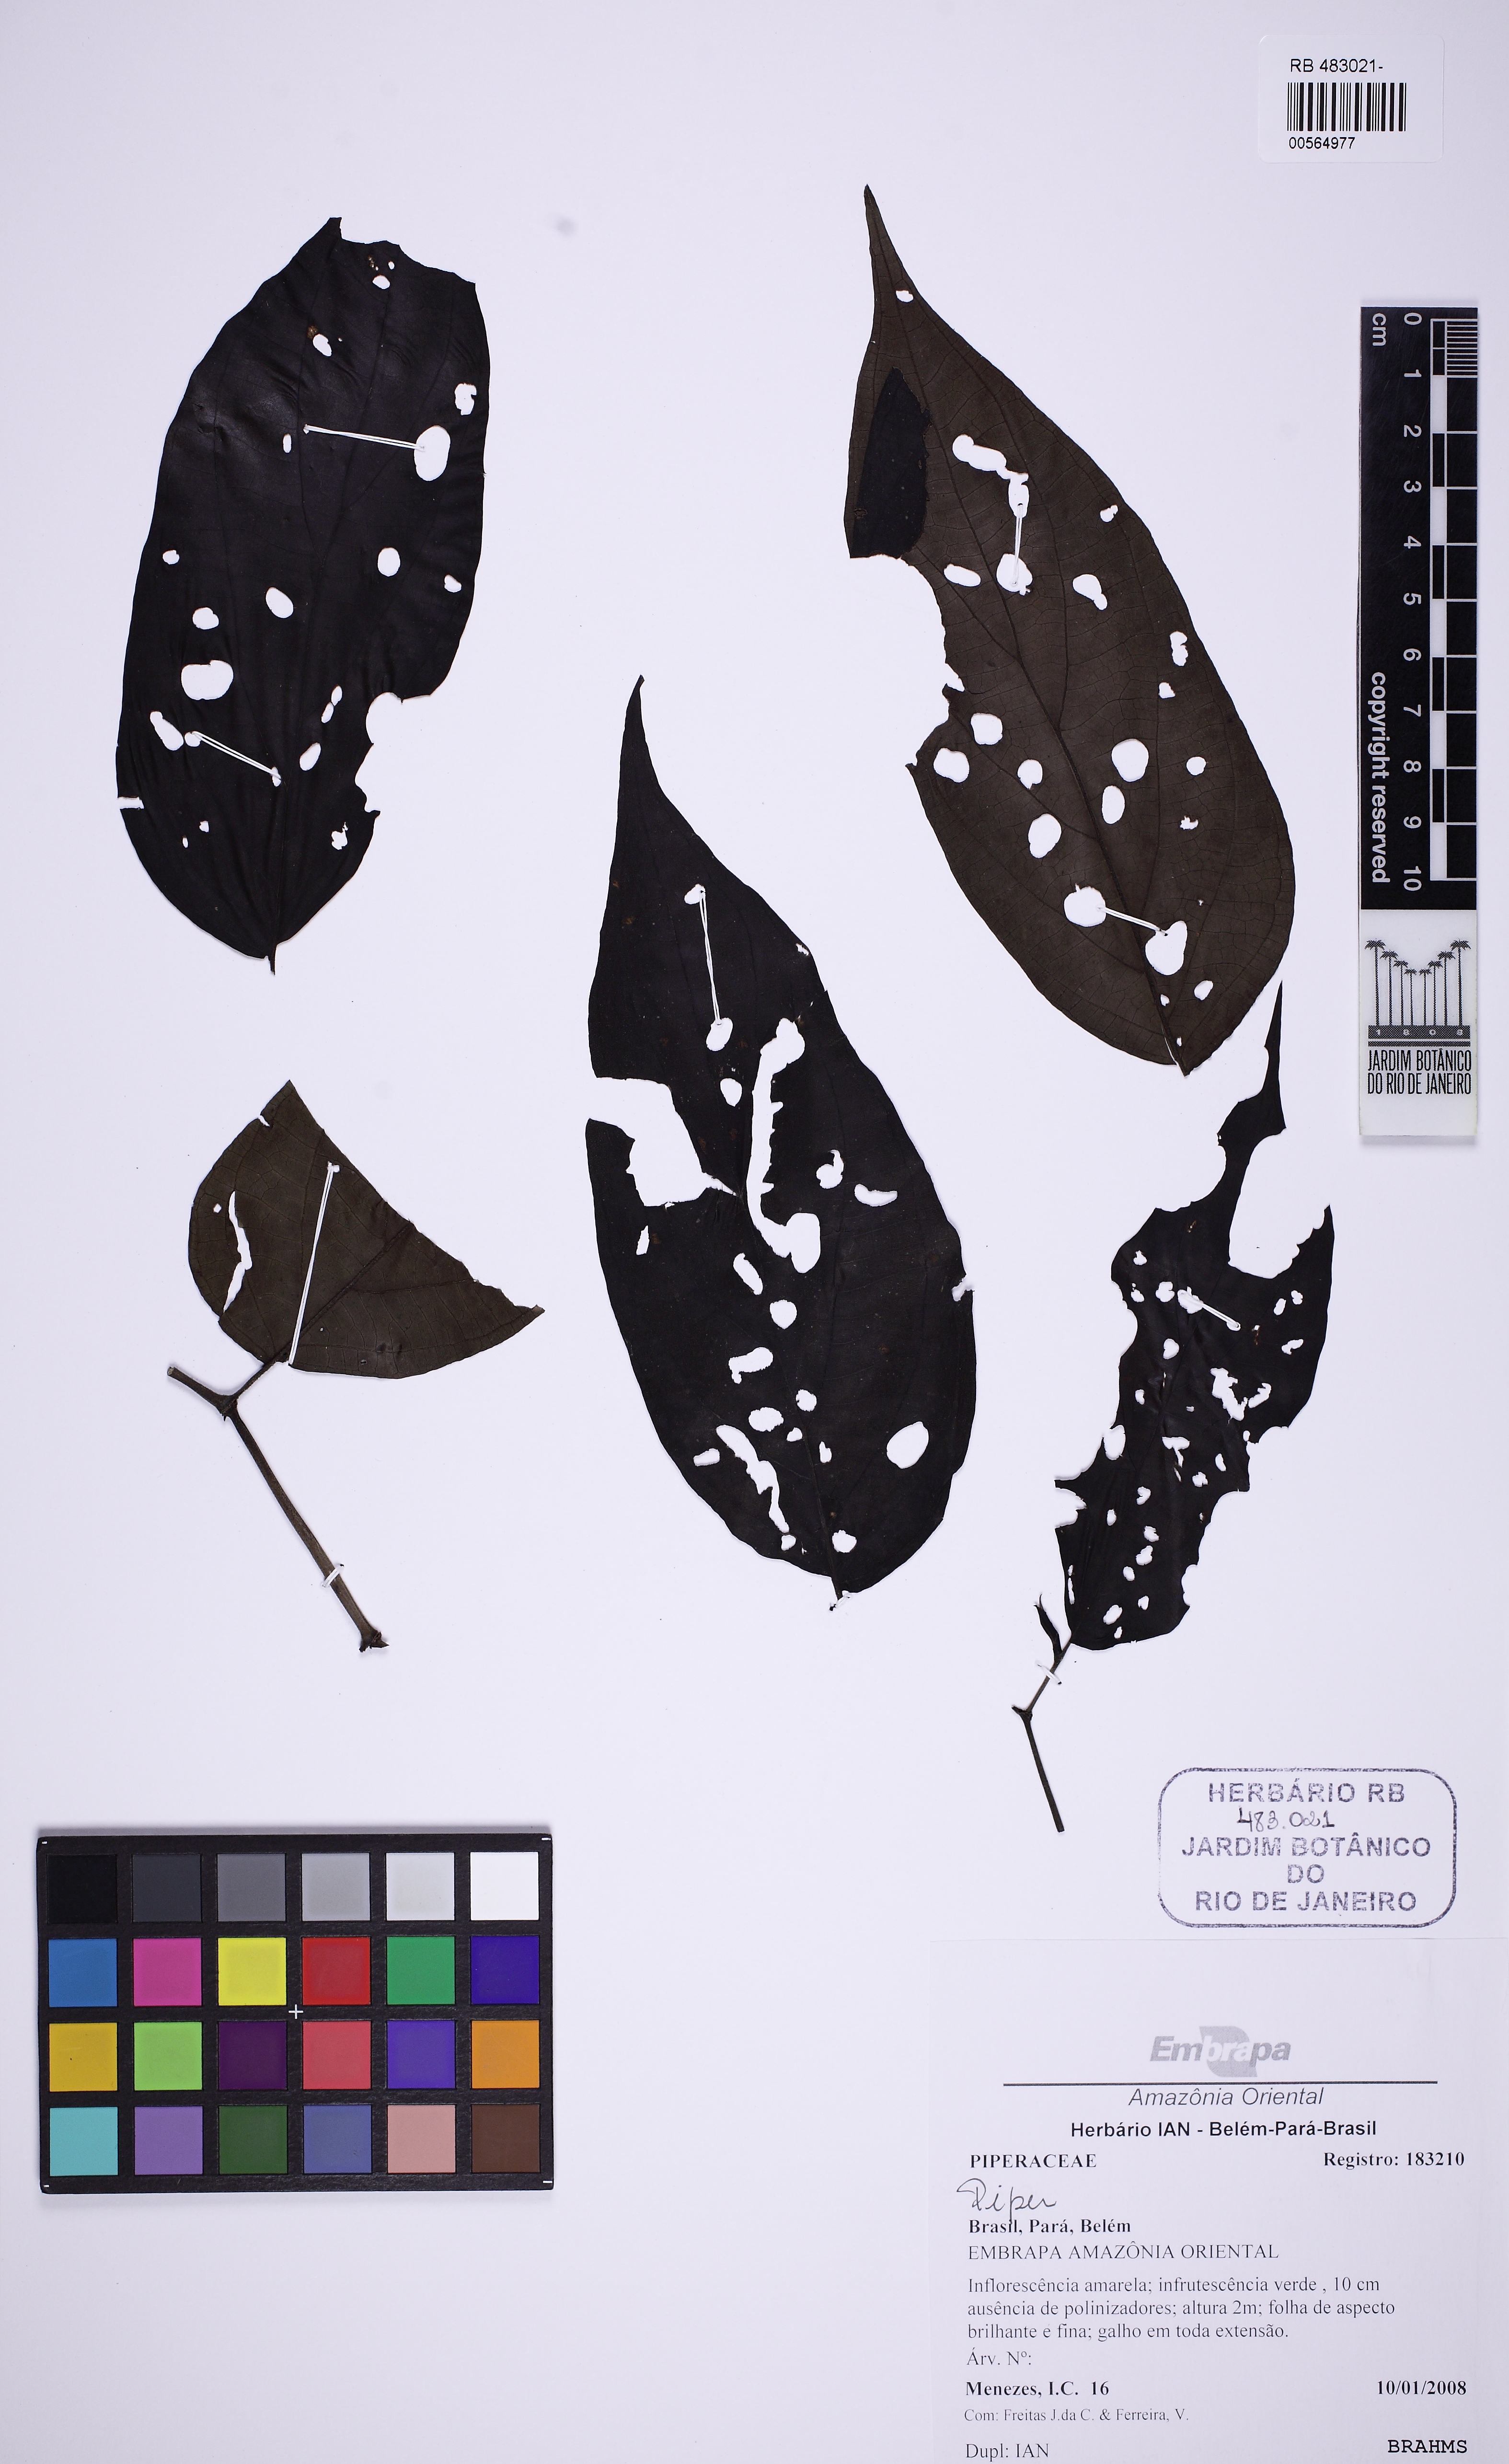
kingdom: Plantae
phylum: Tracheophyta
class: Magnoliopsida
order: Piperales
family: Piperaceae
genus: Peperomia
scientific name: Peperomia
